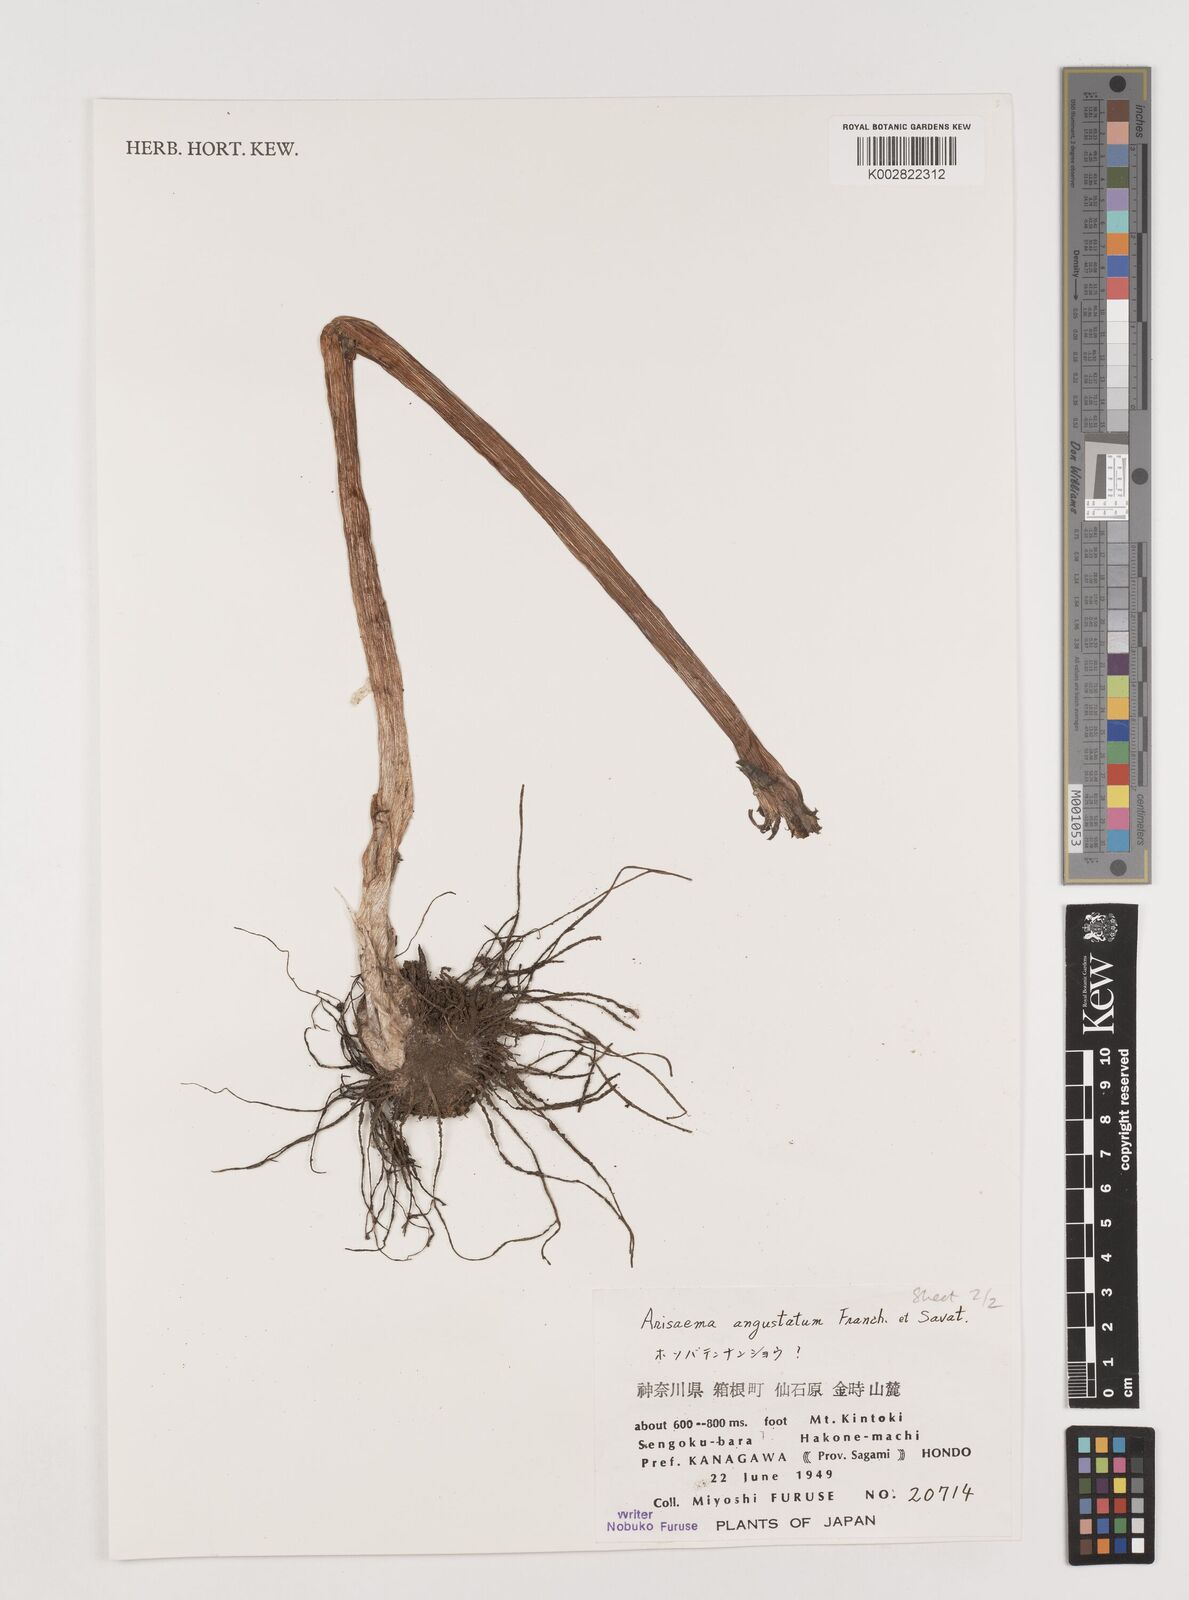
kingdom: Plantae
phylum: Tracheophyta
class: Liliopsida
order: Alismatales
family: Araceae
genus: Arisaema
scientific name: Arisaema angustatum
